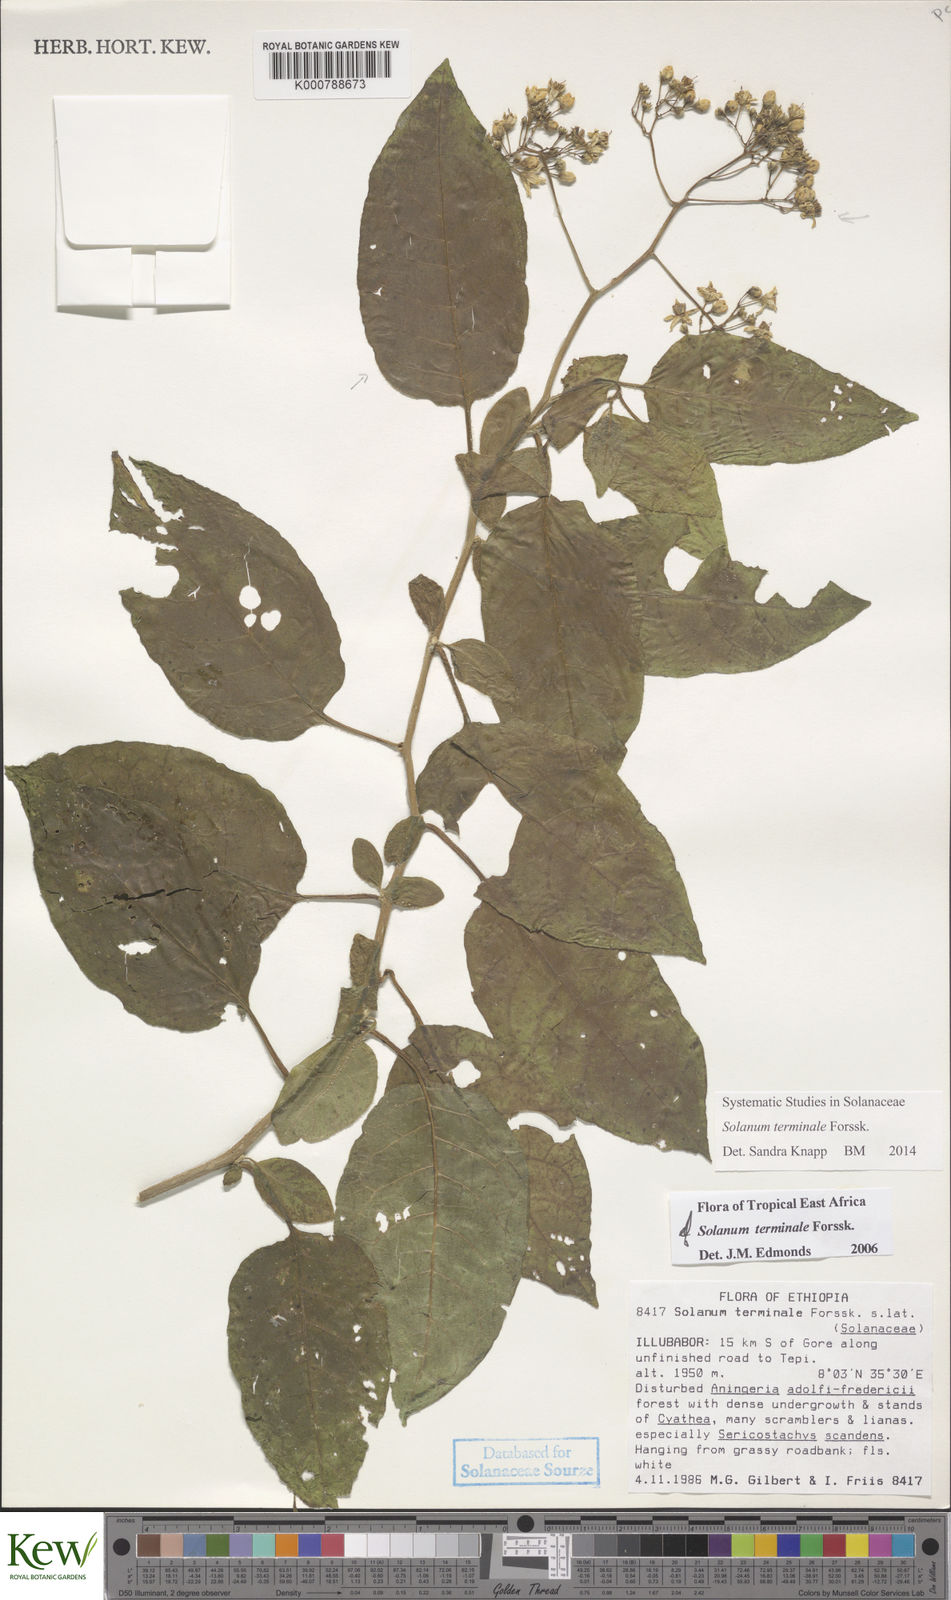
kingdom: Plantae
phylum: Tracheophyta
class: Magnoliopsida
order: Solanales
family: Solanaceae
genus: Solanum
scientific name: Solanum terminale
